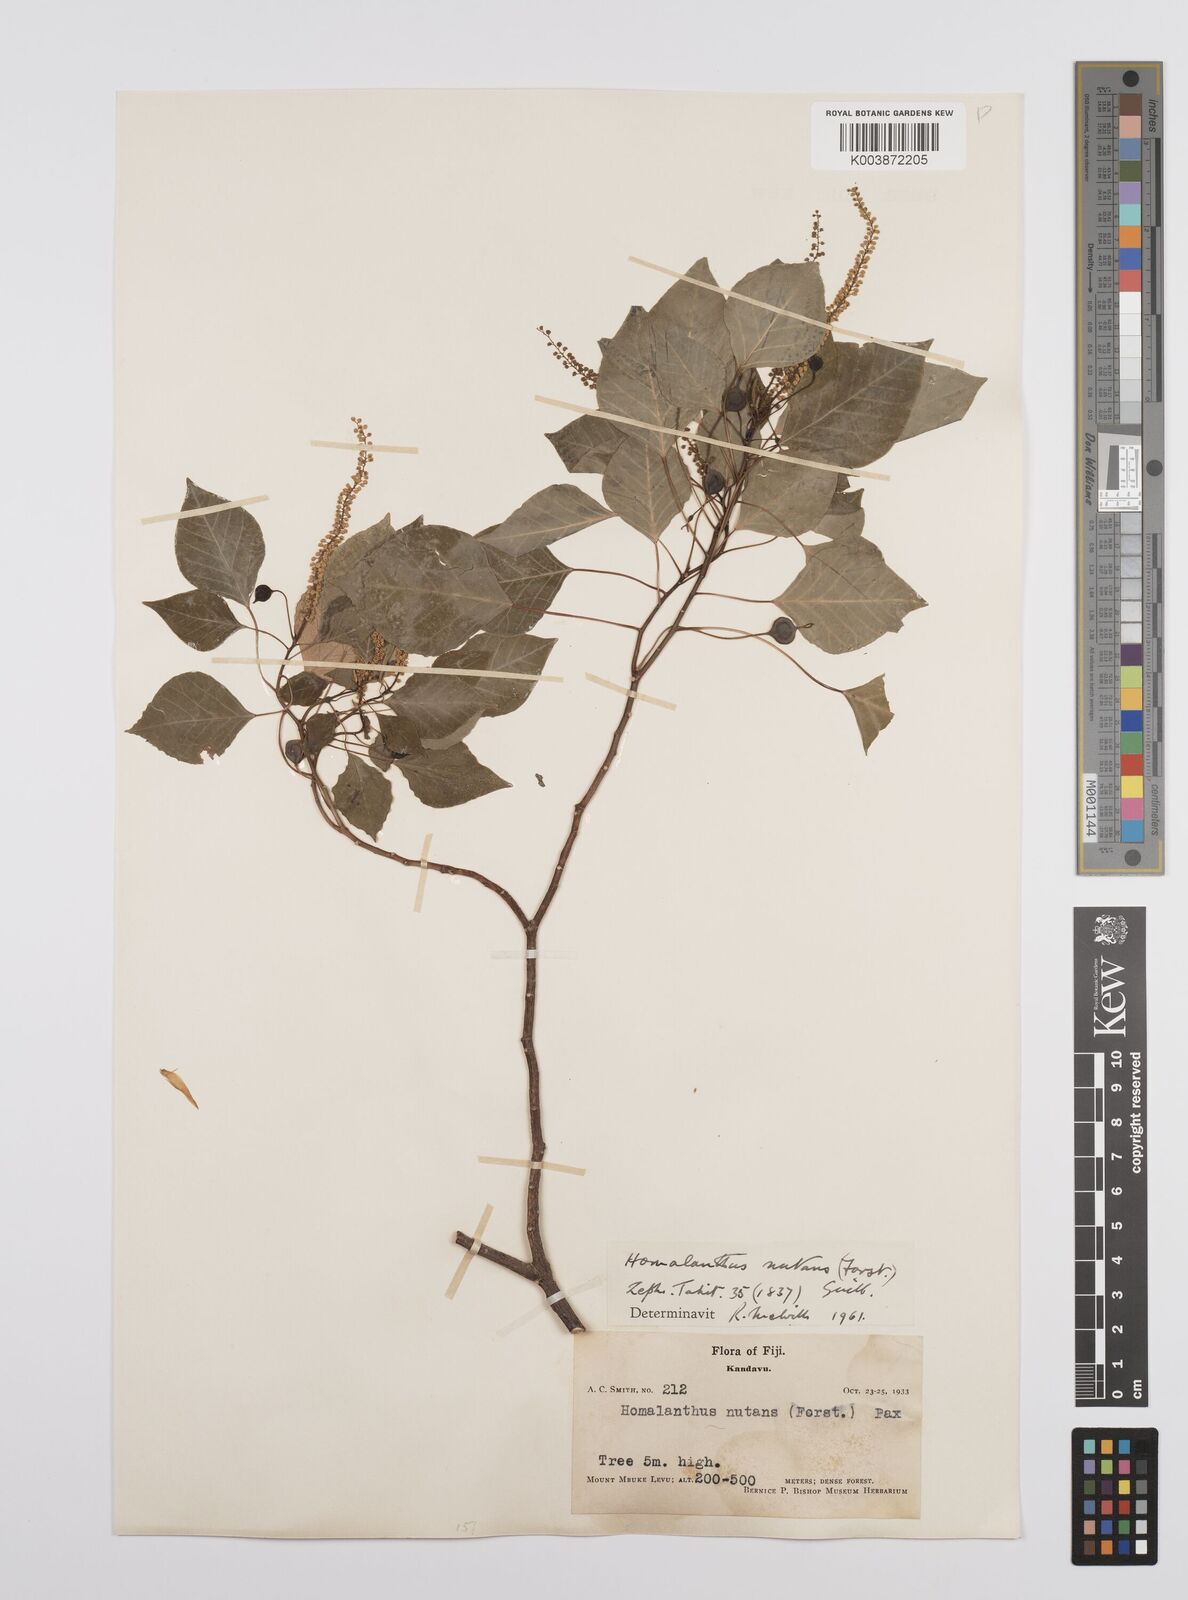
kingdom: Plantae
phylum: Tracheophyta
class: Magnoliopsida
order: Malpighiales
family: Euphorbiaceae
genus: Homalanthus
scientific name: Homalanthus nutans
